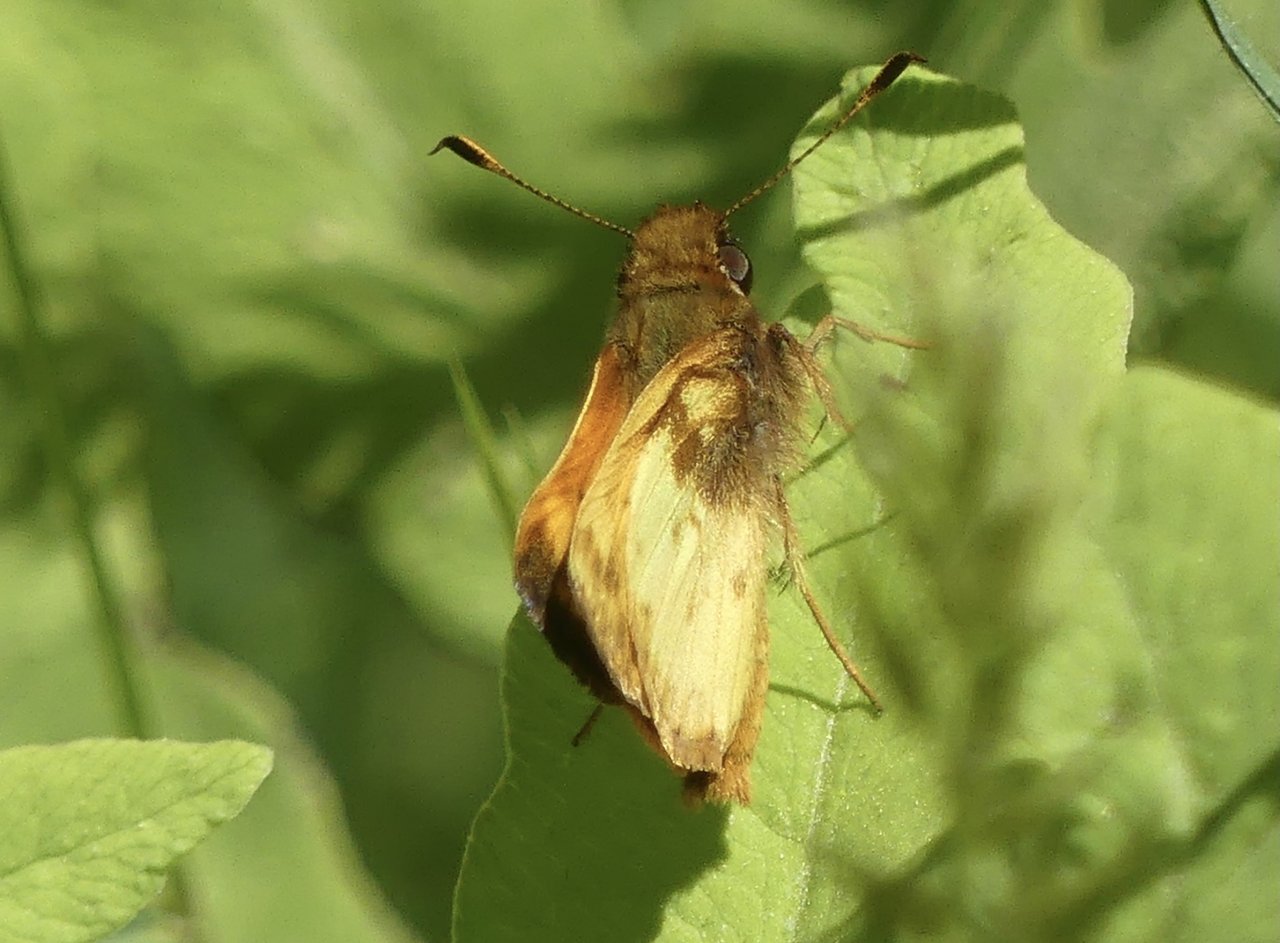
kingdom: Animalia
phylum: Arthropoda
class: Insecta
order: Lepidoptera
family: Hesperiidae
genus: Lon
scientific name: Lon zabulon
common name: Zabulon Skipper
